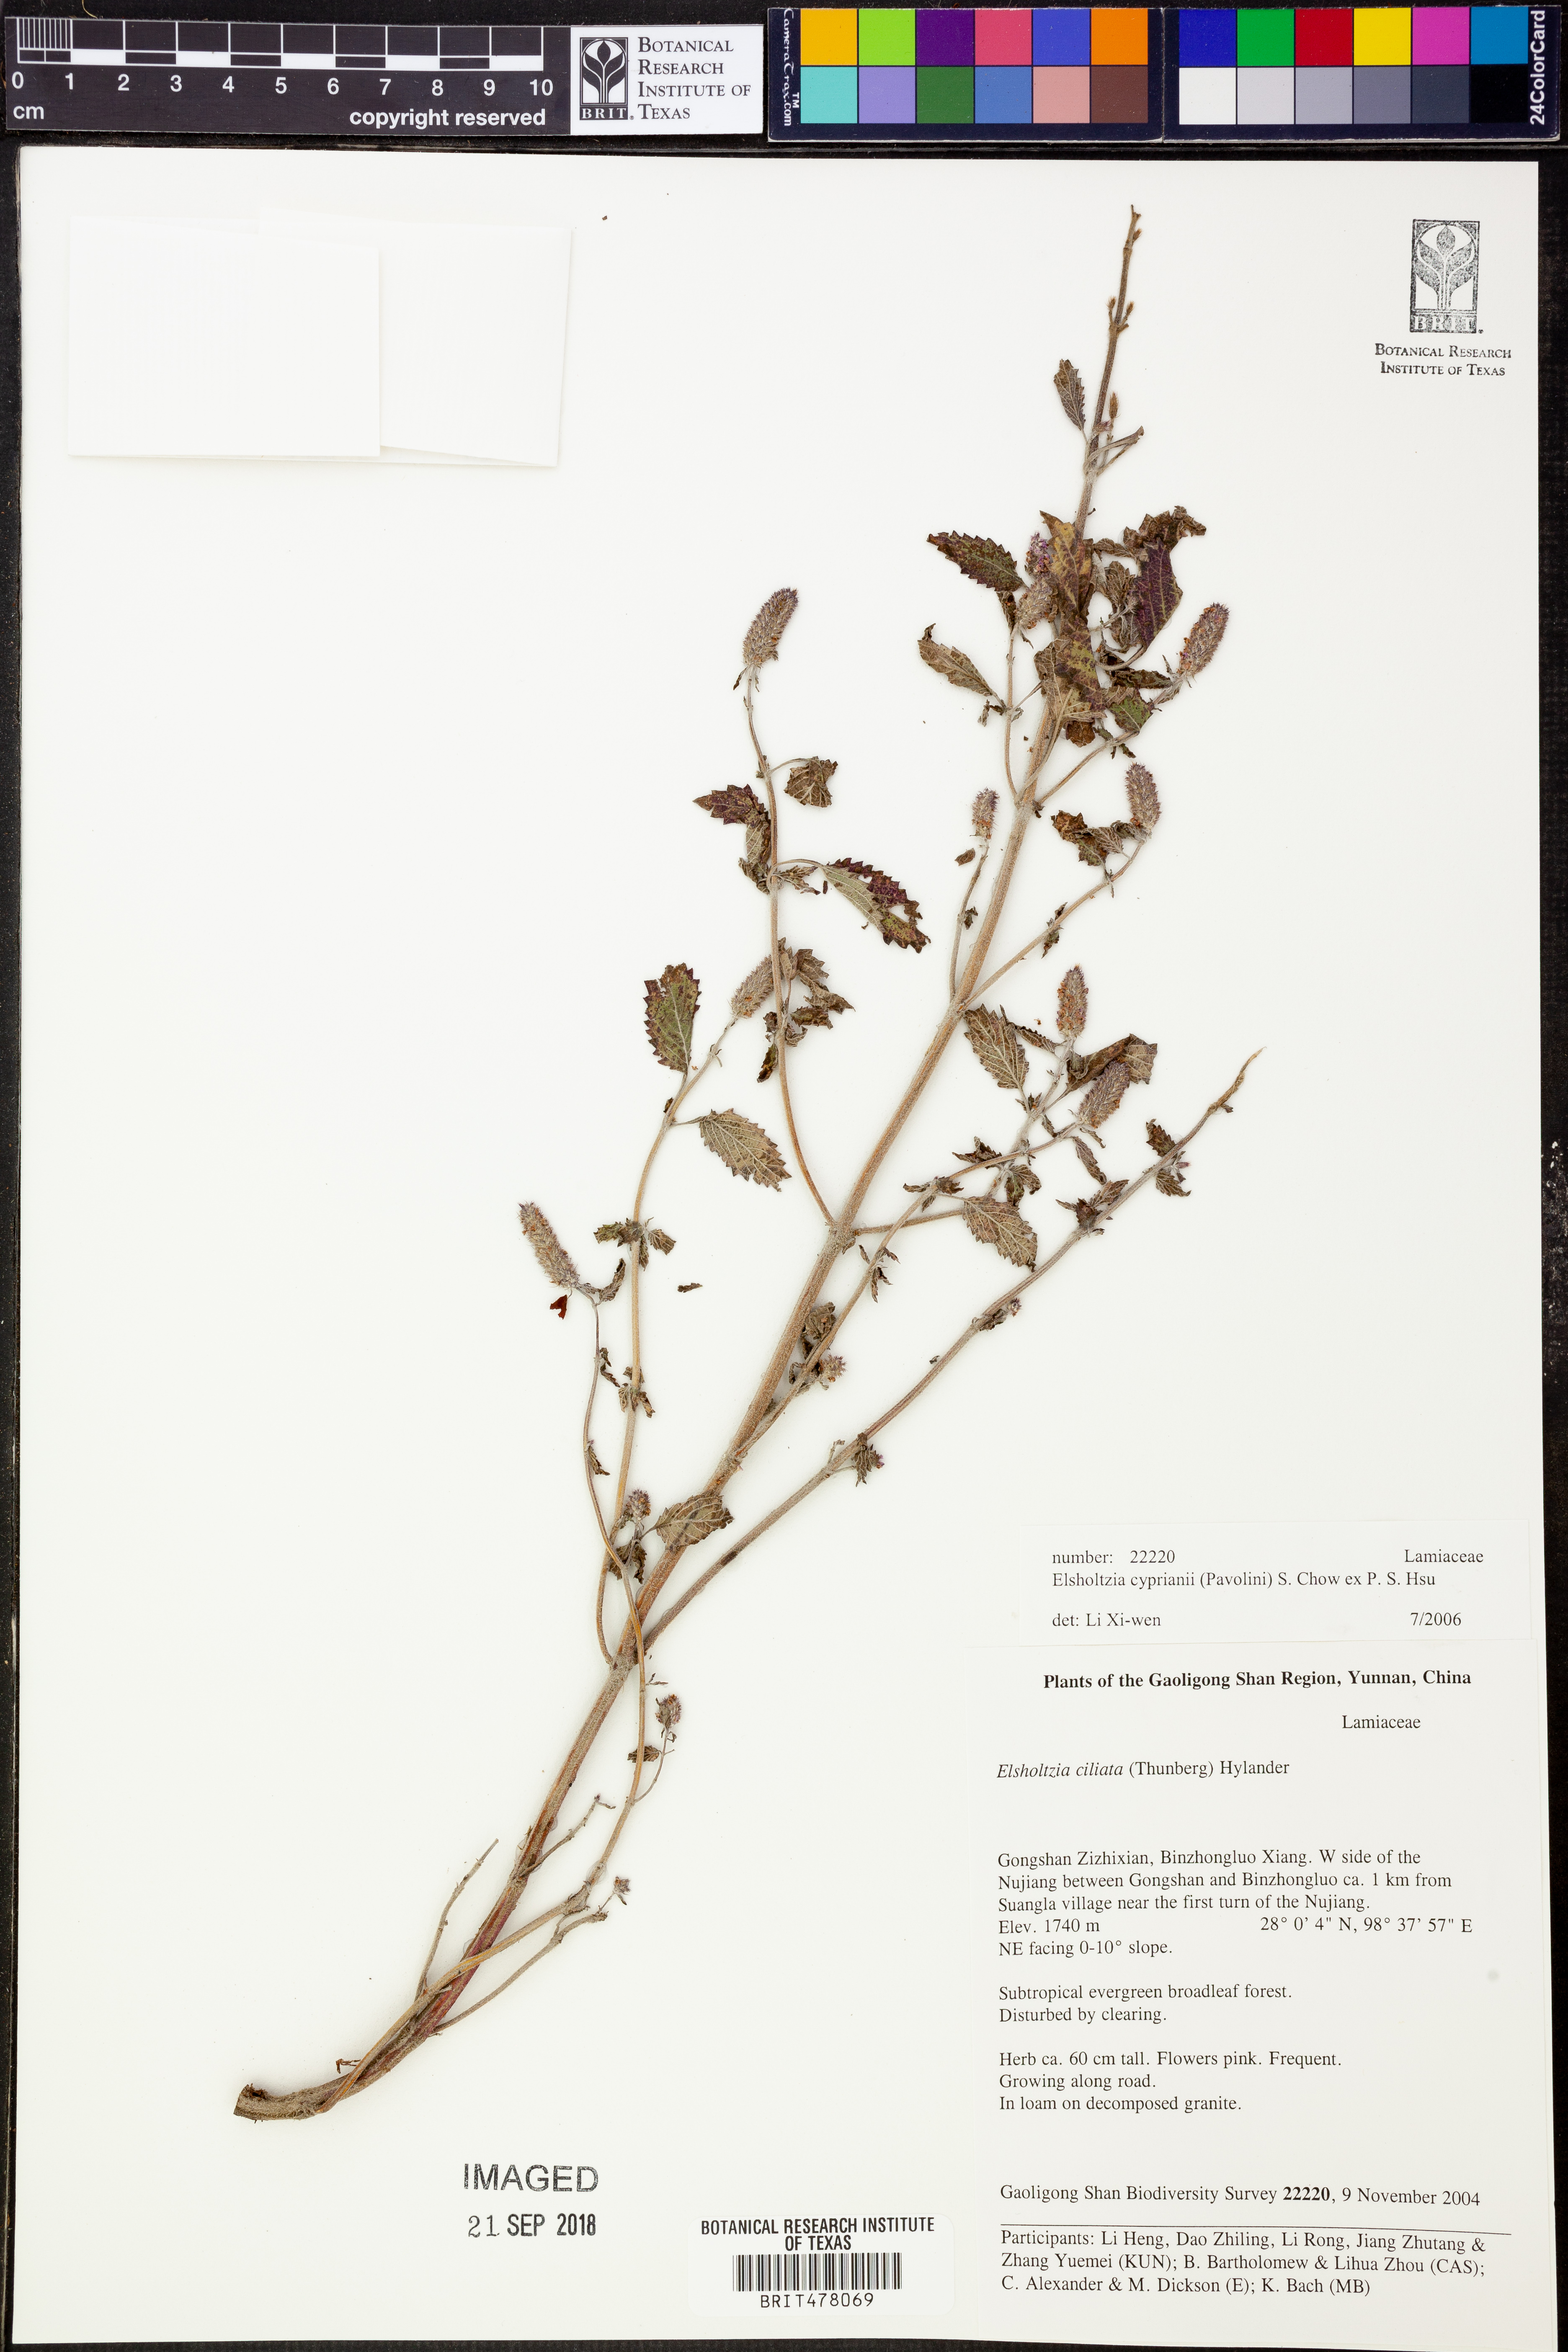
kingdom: Plantae
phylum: Tracheophyta
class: Magnoliopsida
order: Lamiales
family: Lamiaceae
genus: Elsholtzia
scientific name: Elsholtzia cyprianii
